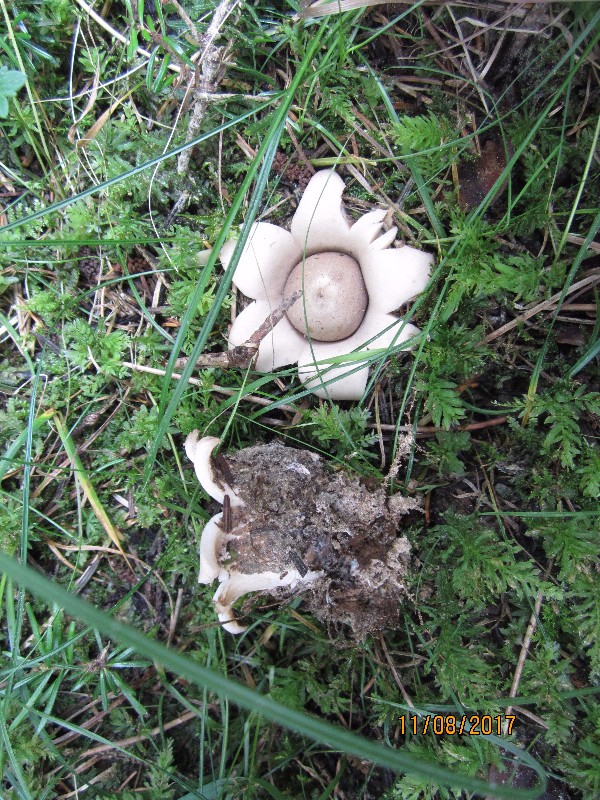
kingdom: Fungi
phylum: Basidiomycota
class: Agaricomycetes
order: Geastrales
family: Geastraceae
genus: Geastrum
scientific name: Geastrum fimbriatum
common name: frynset stjernebold
